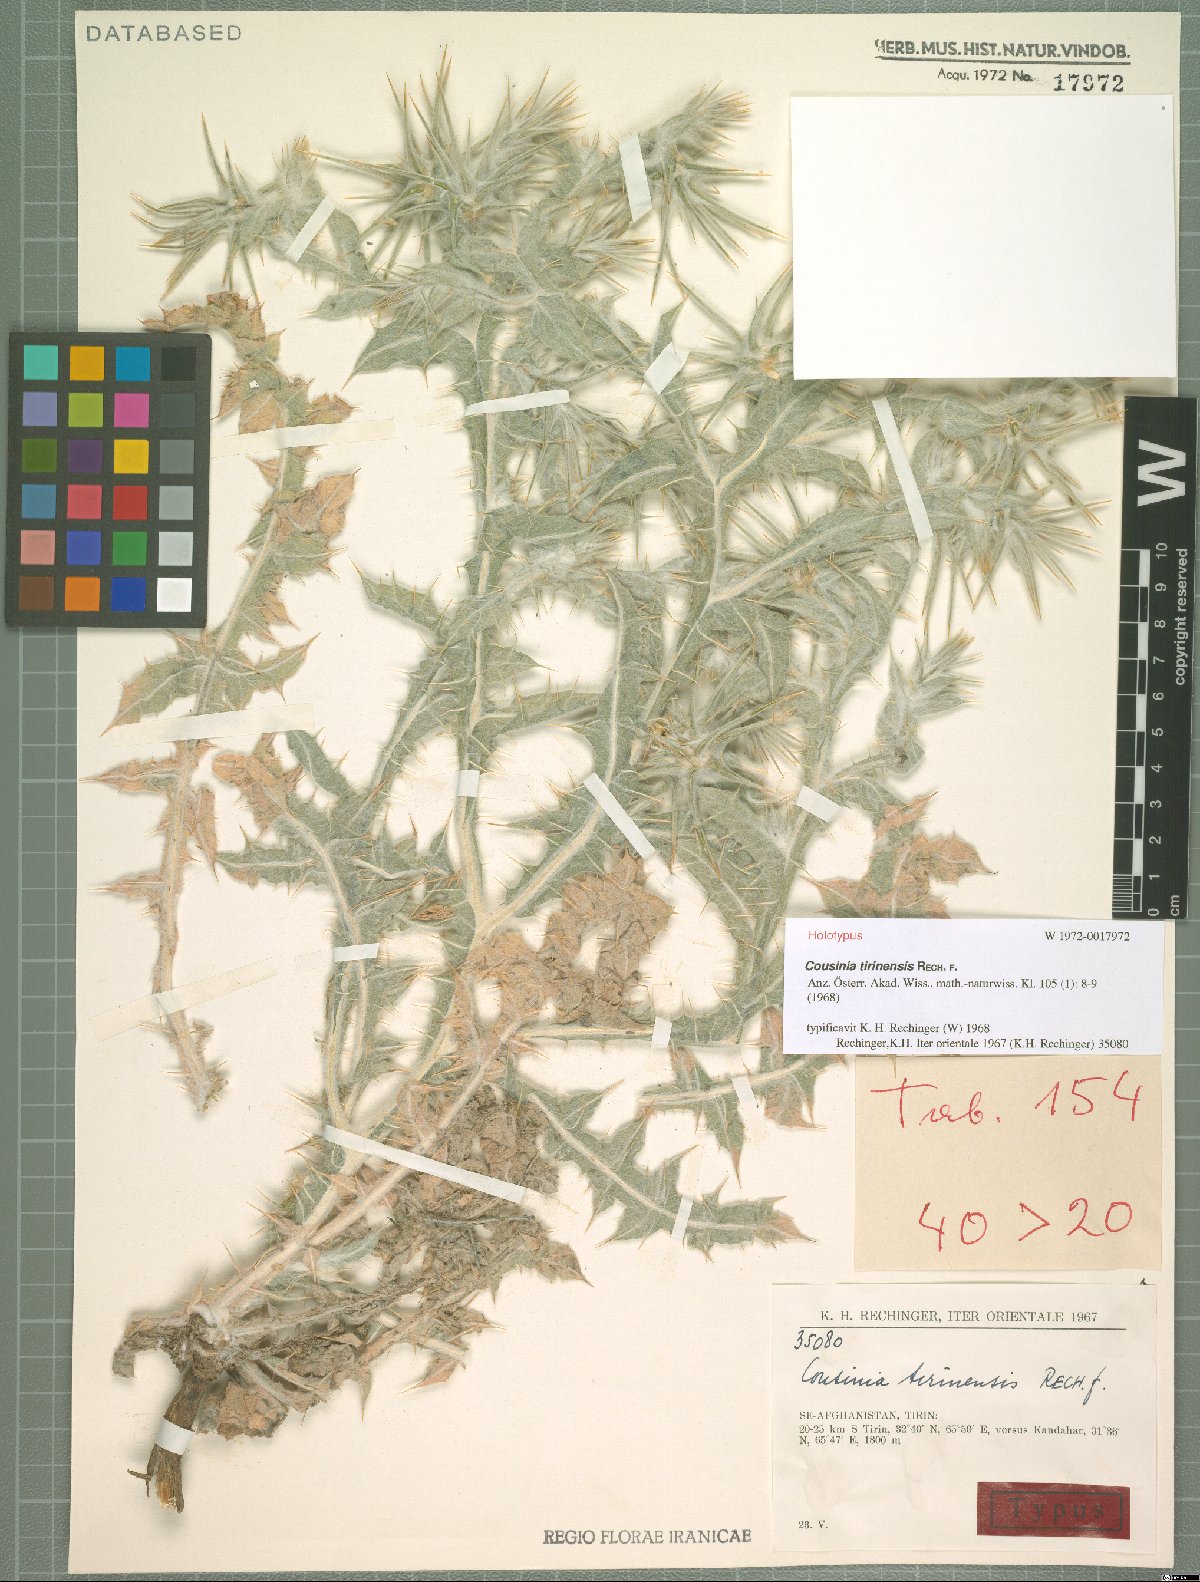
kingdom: Plantae
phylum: Tracheophyta
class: Magnoliopsida
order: Asterales
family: Asteraceae
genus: Cousinia
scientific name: Cousinia tirinensis
